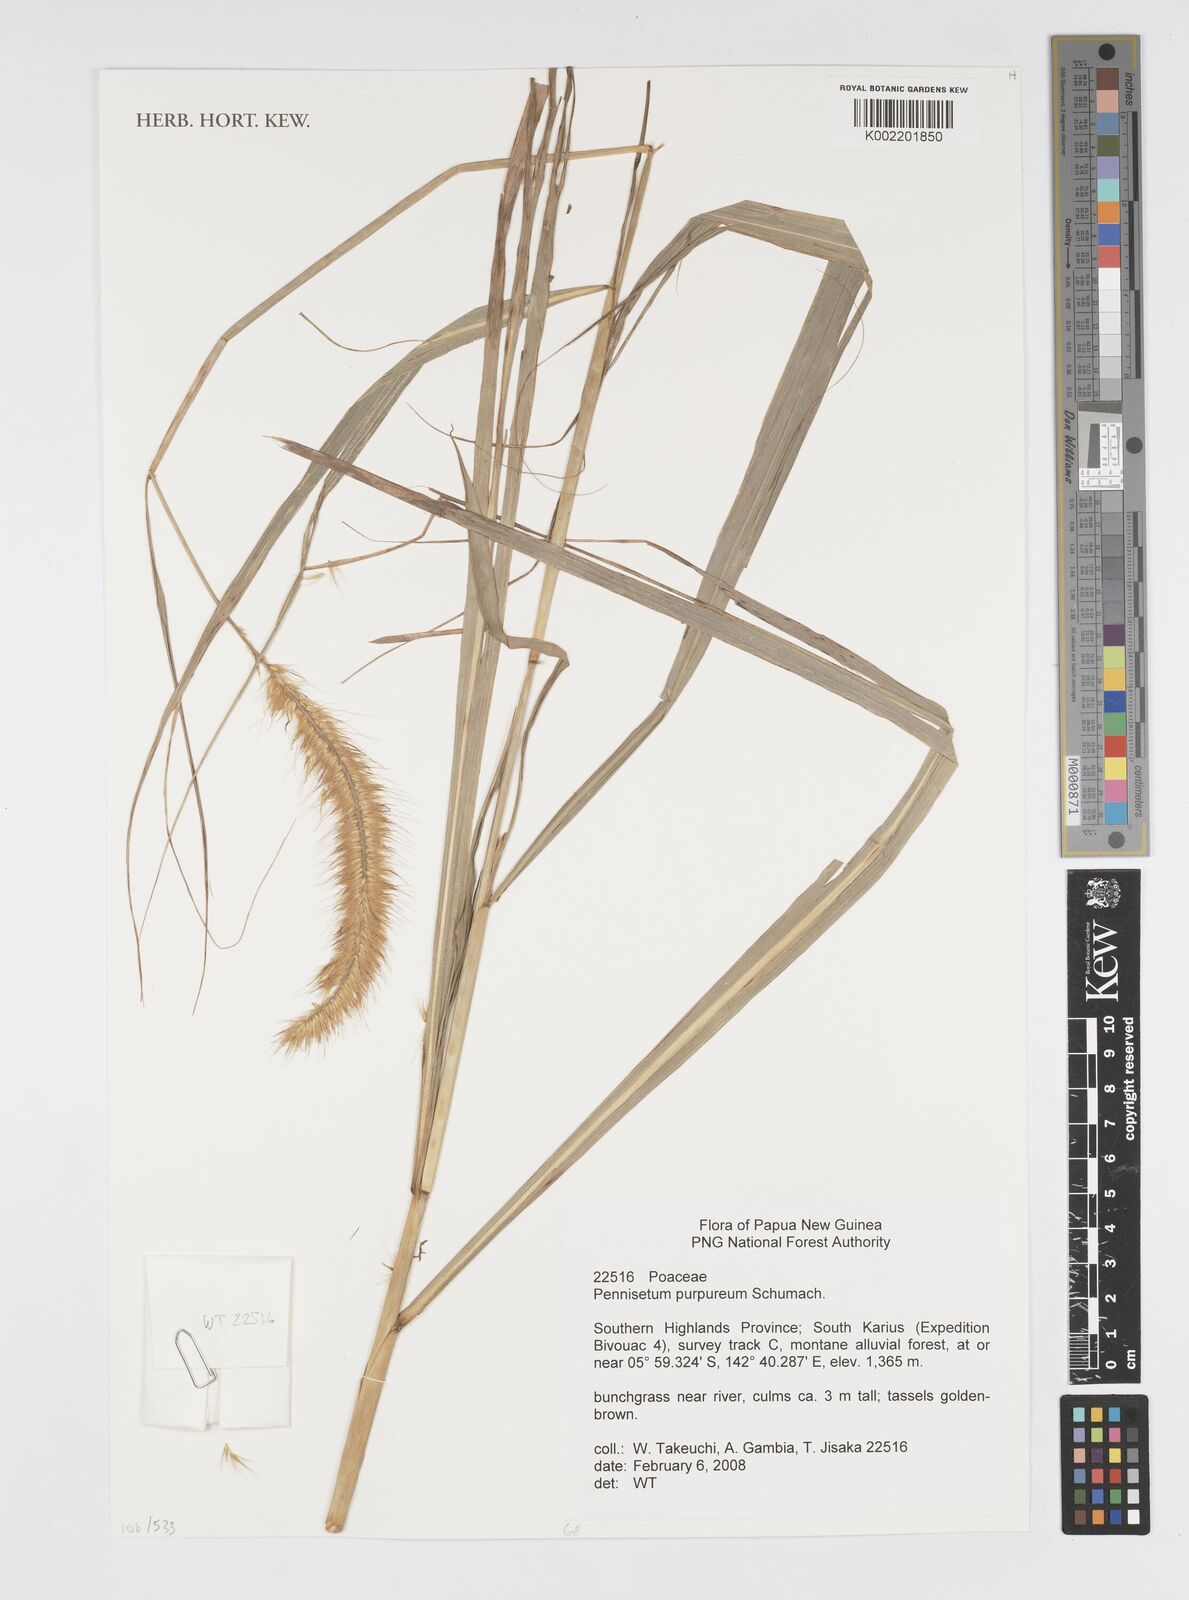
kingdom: Plantae
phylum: Tracheophyta
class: Liliopsida
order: Poales
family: Poaceae
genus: Cenchrus
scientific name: Cenchrus purpureus
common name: Elephant grass
